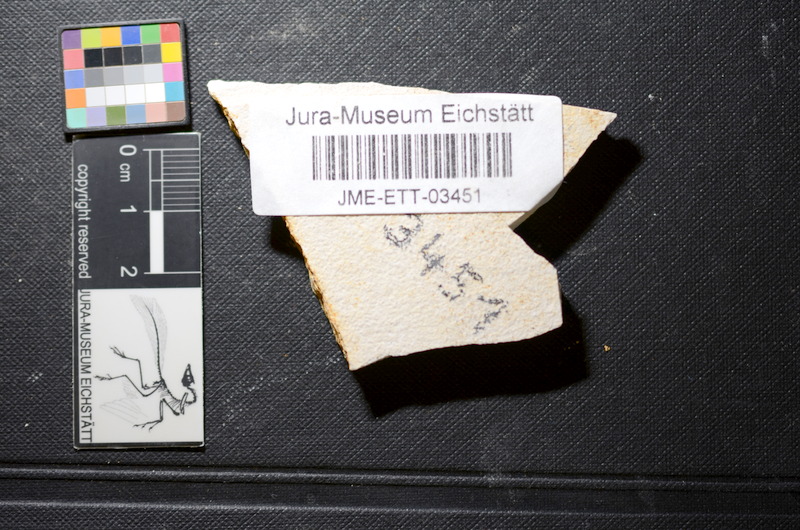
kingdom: Animalia
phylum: Chordata
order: Salmoniformes
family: Orthogonikleithridae
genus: Orthogonikleithrus
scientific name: Orthogonikleithrus hoelli
